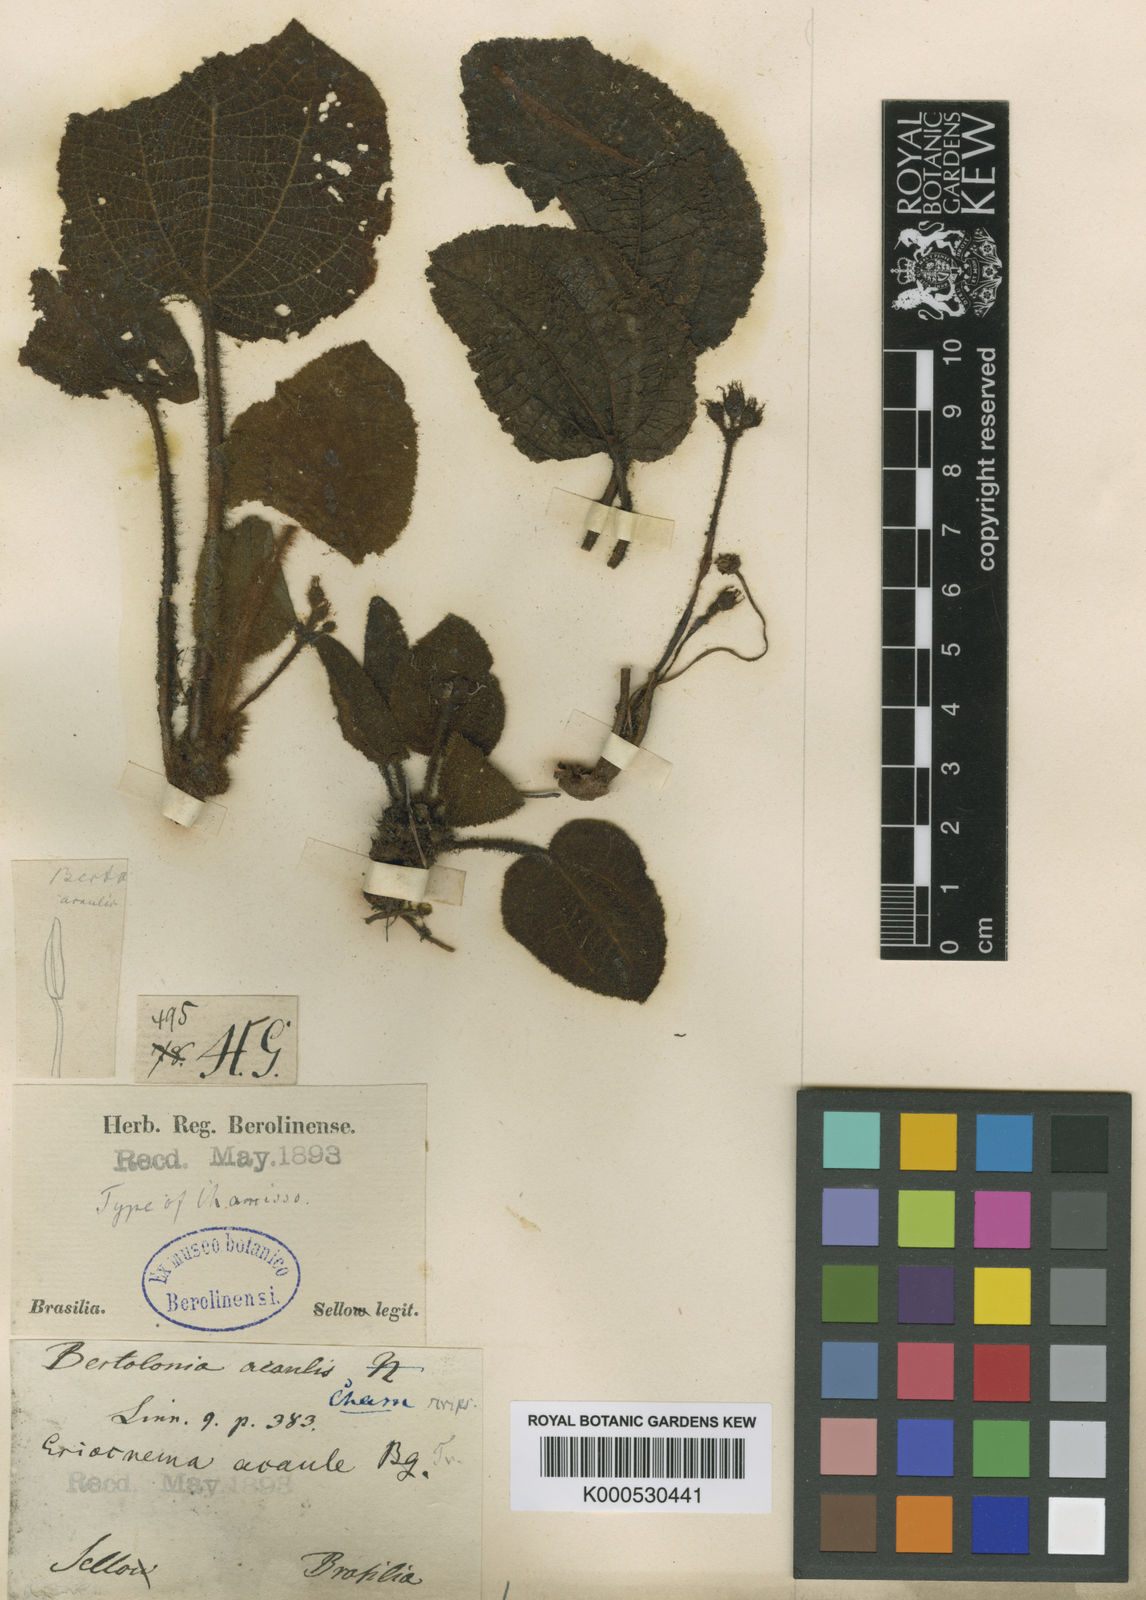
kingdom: Plantae
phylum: Tracheophyta
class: Magnoliopsida
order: Myrtales
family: Melastomataceae
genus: Eriocnema
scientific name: Eriocnema acaulis
